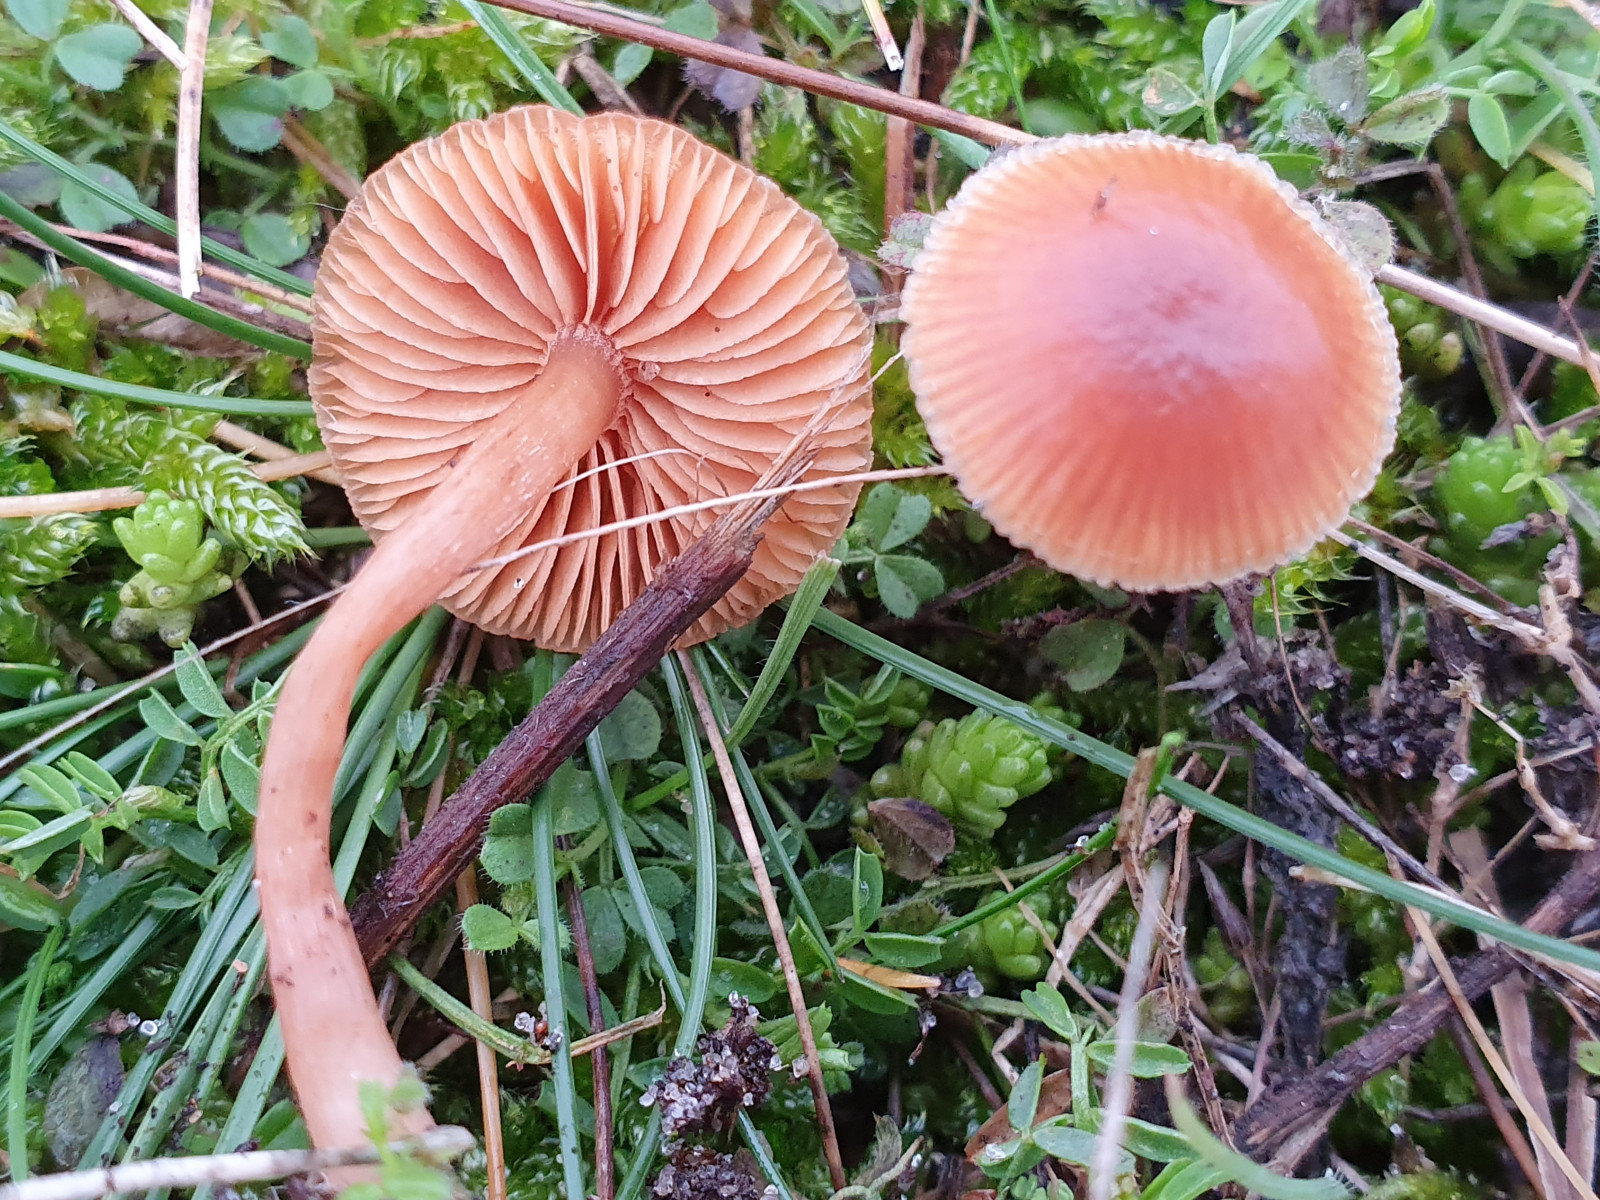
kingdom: Fungi
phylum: Basidiomycota
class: Agaricomycetes
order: Agaricales
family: Tubariaceae
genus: Tubaria
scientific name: Tubaria furfuracea
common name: kliddet fnughat
